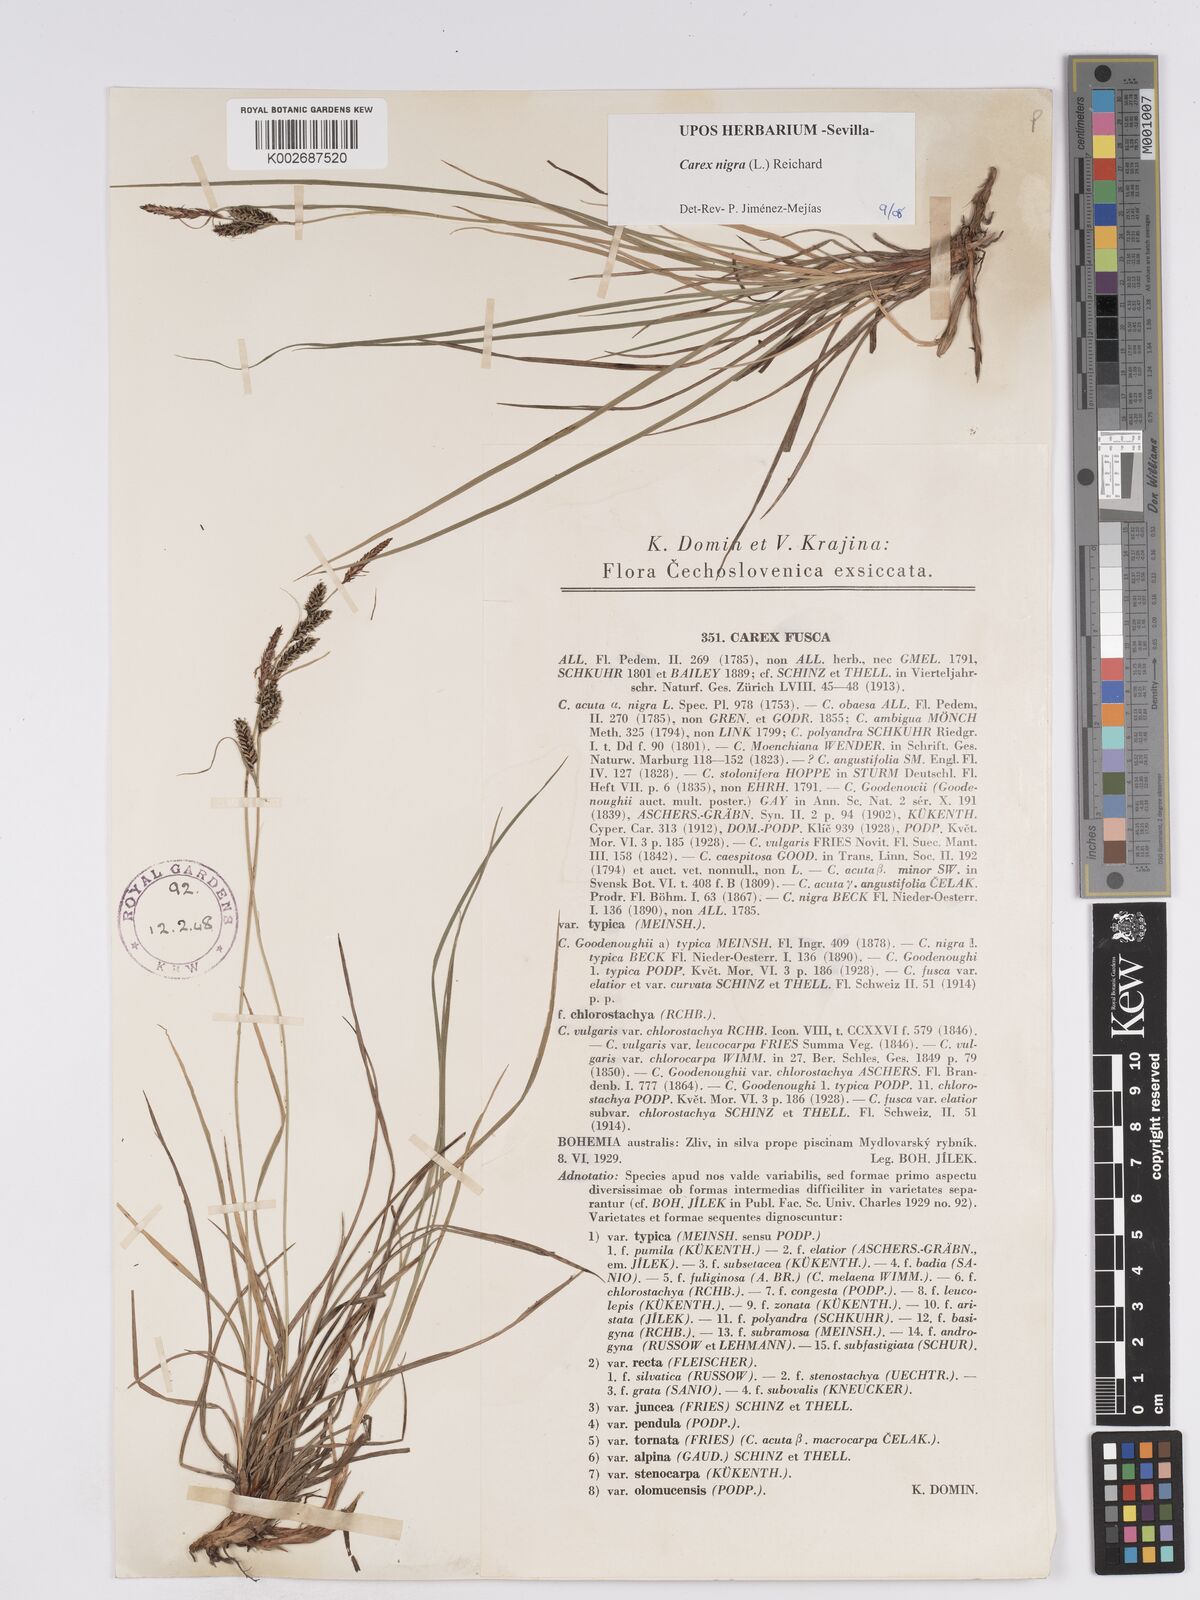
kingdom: Plantae
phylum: Tracheophyta
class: Liliopsida
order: Poales
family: Cyperaceae
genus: Carex
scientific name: Carex nigra
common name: Common sedge
